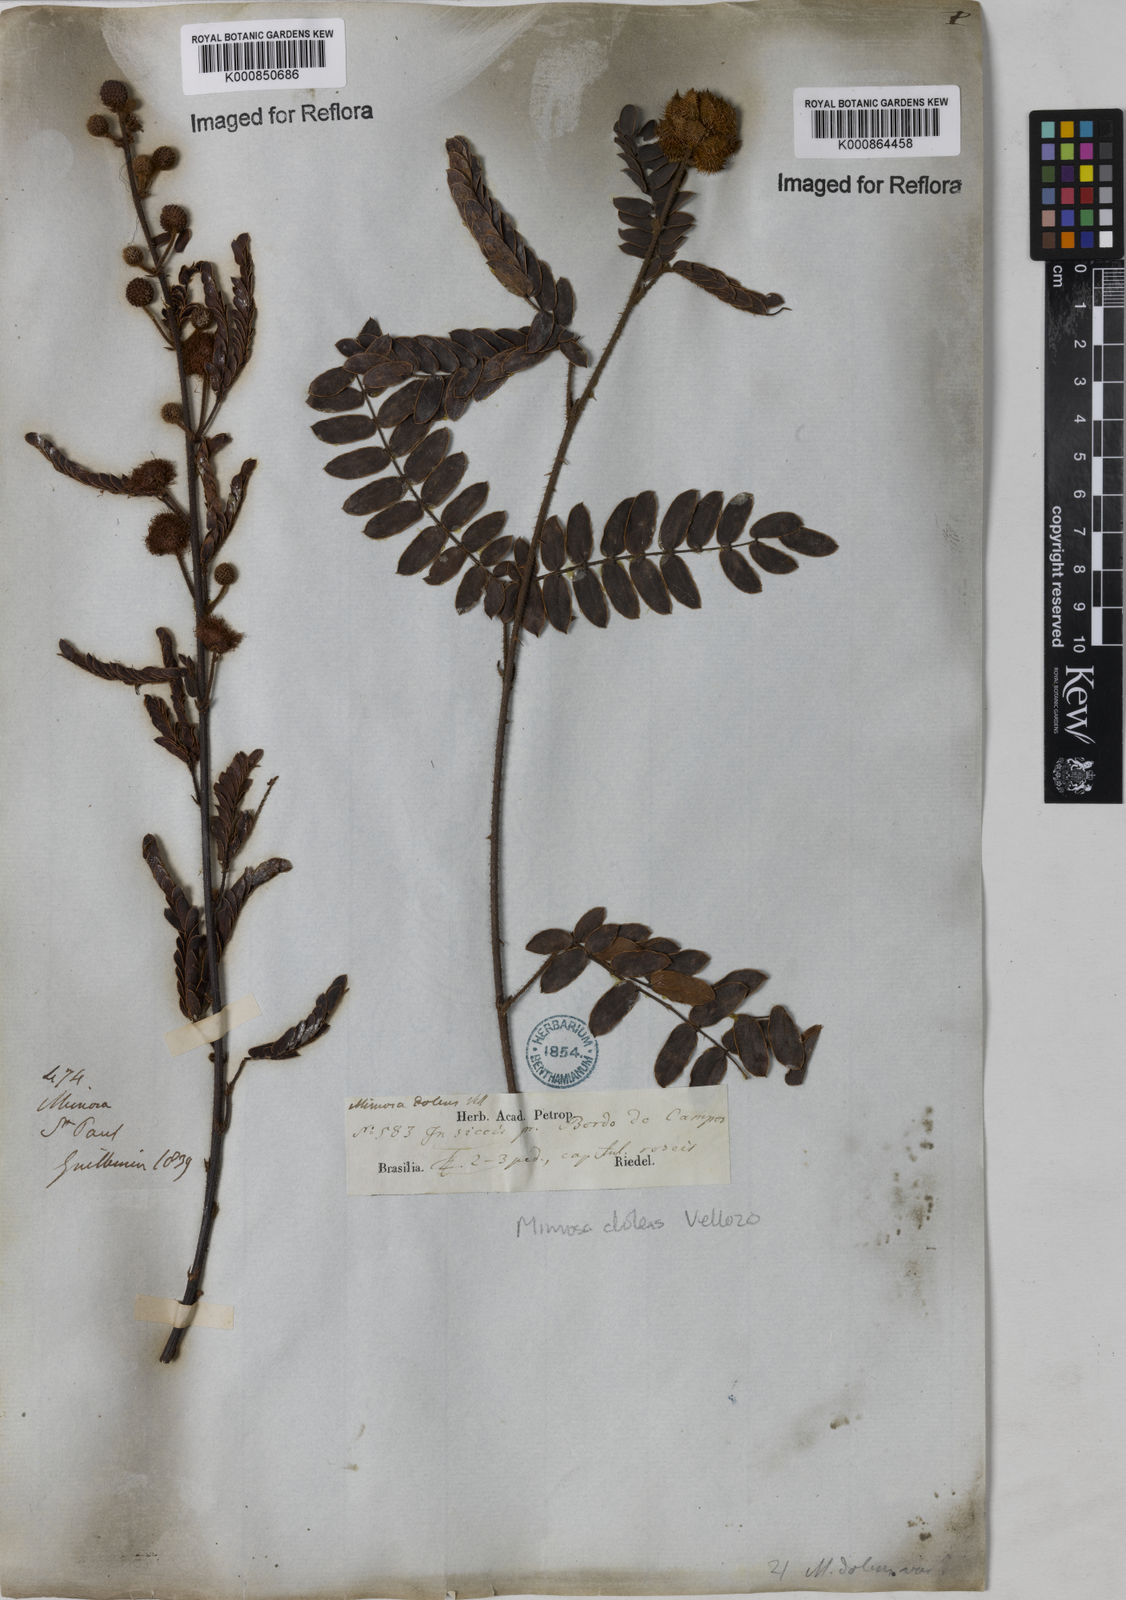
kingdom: Plantae
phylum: Tracheophyta
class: Magnoliopsida
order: Fabales
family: Fabaceae
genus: Mimosa
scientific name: Mimosa dolens
